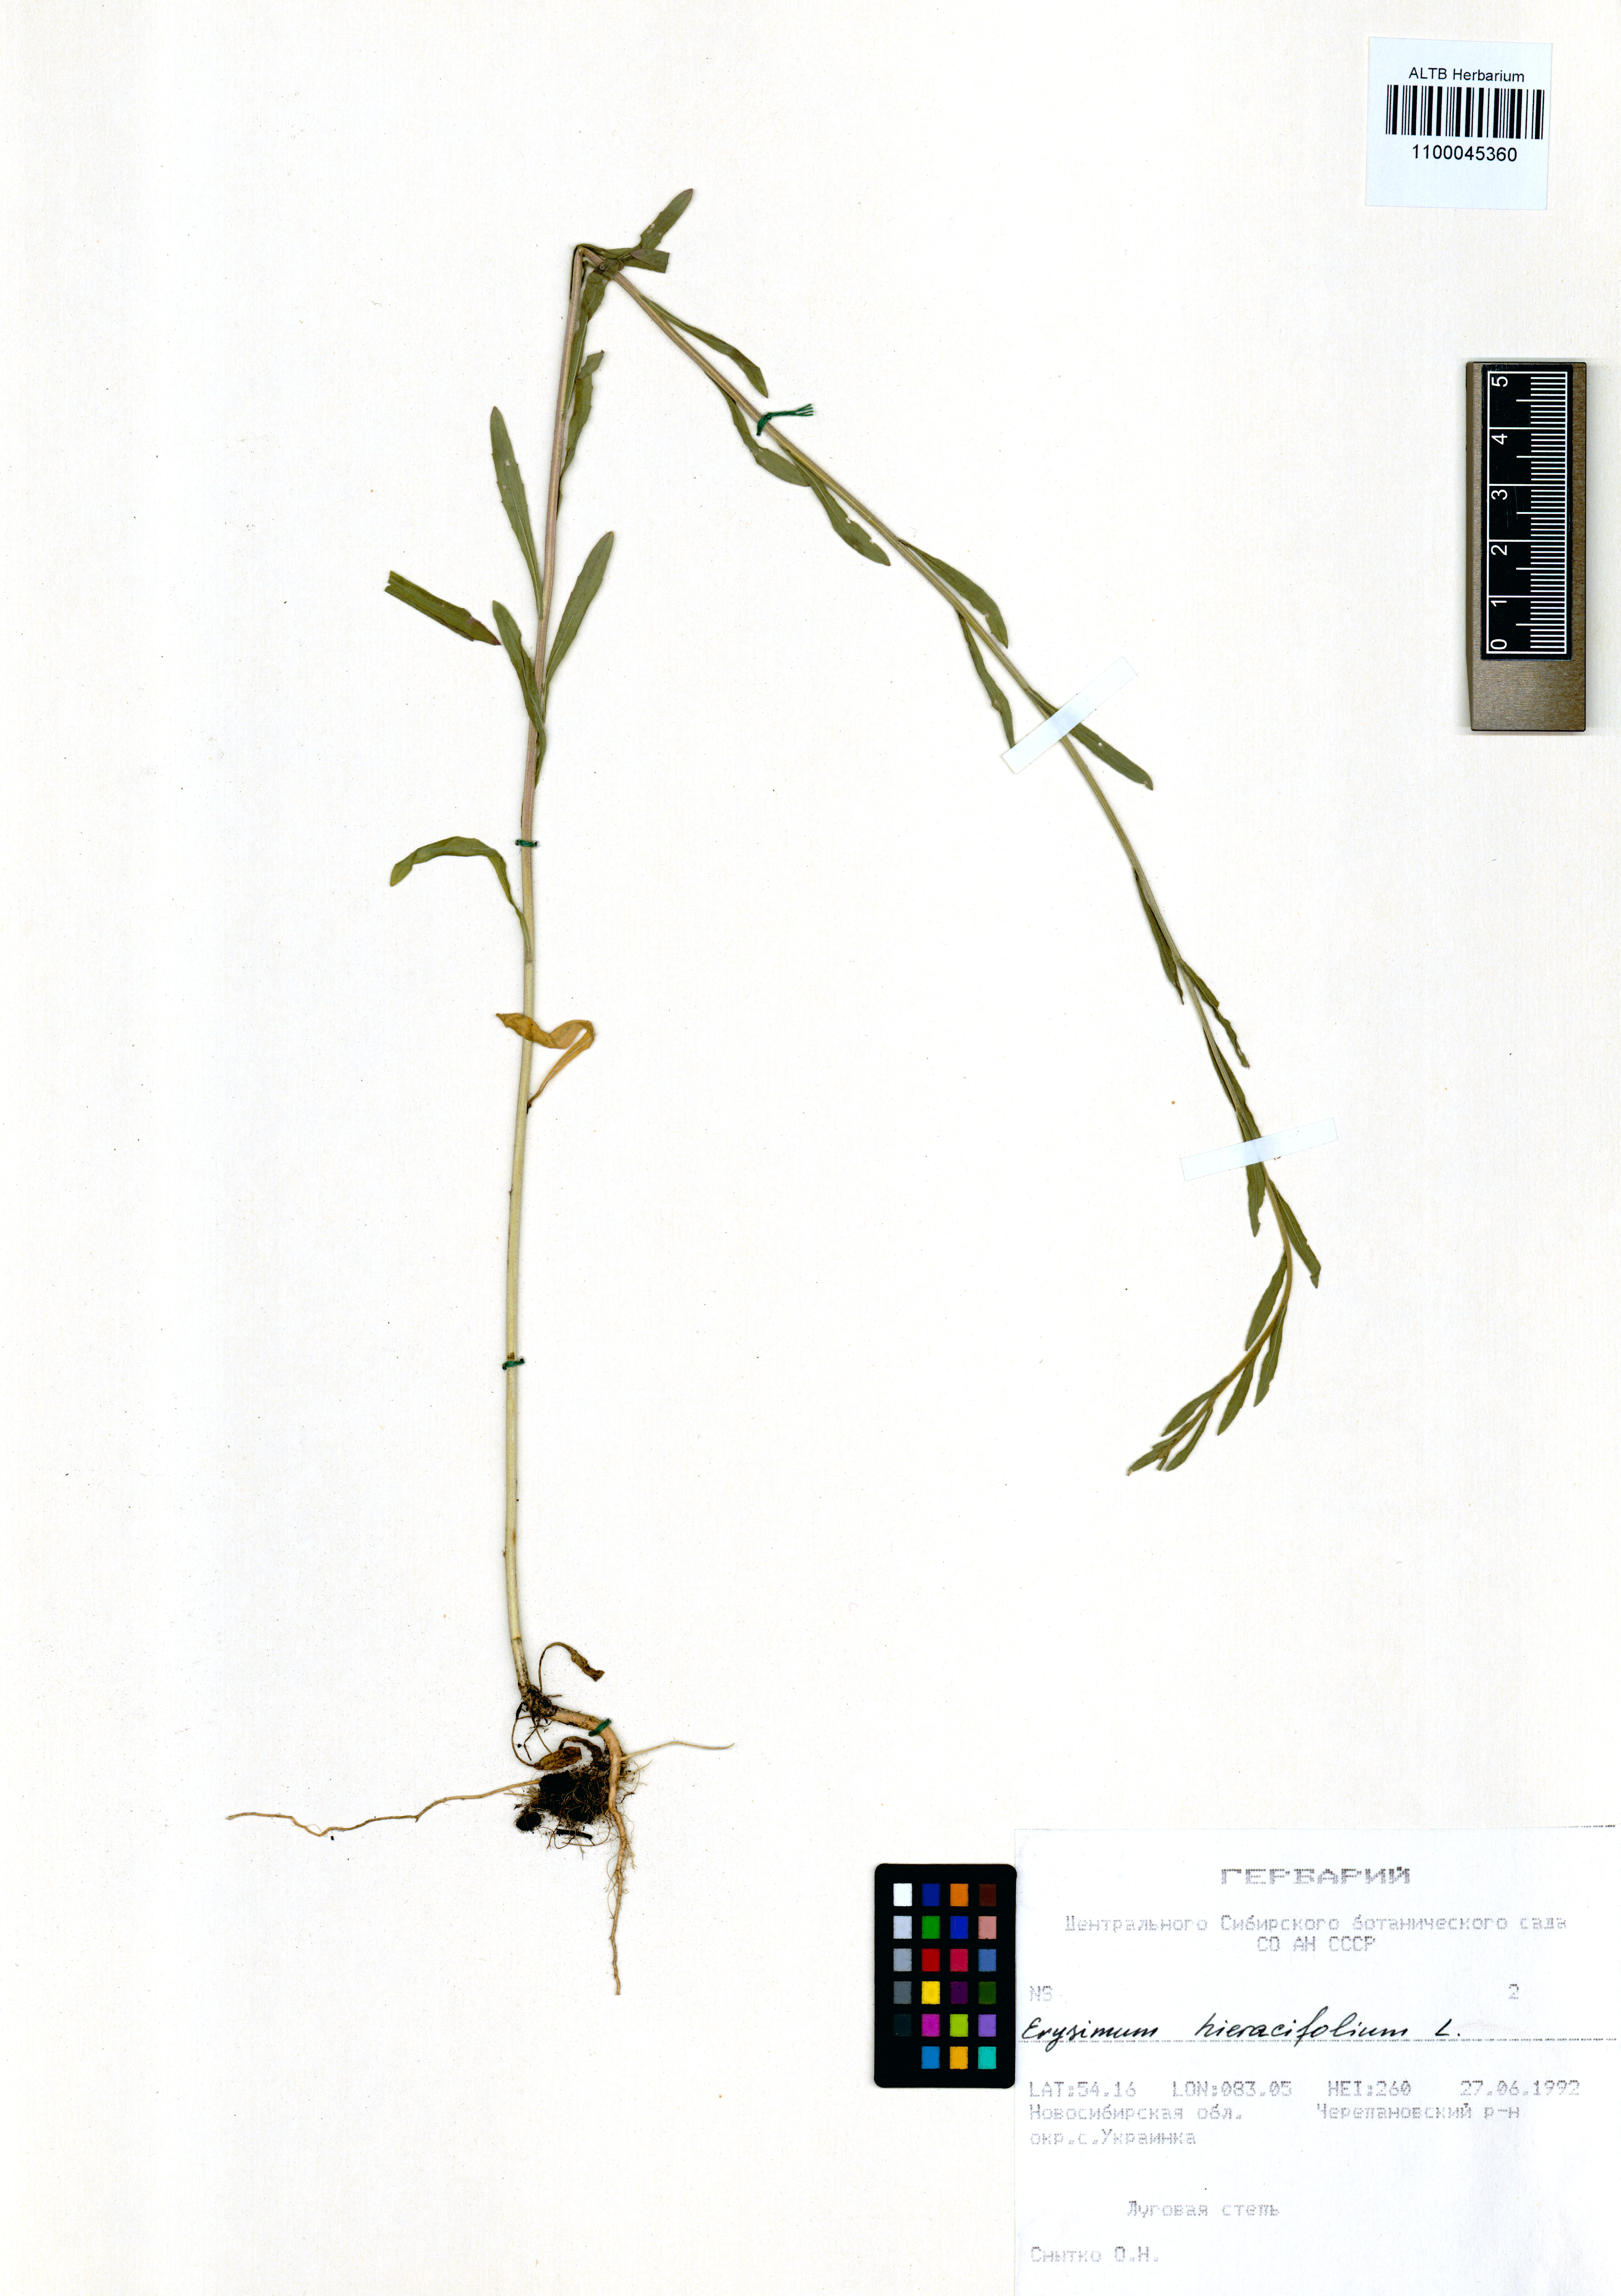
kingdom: Plantae
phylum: Tracheophyta
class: Magnoliopsida
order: Brassicales
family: Brassicaceae
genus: Erysimum
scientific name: Erysimum hieraciifolium
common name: European wallflower
